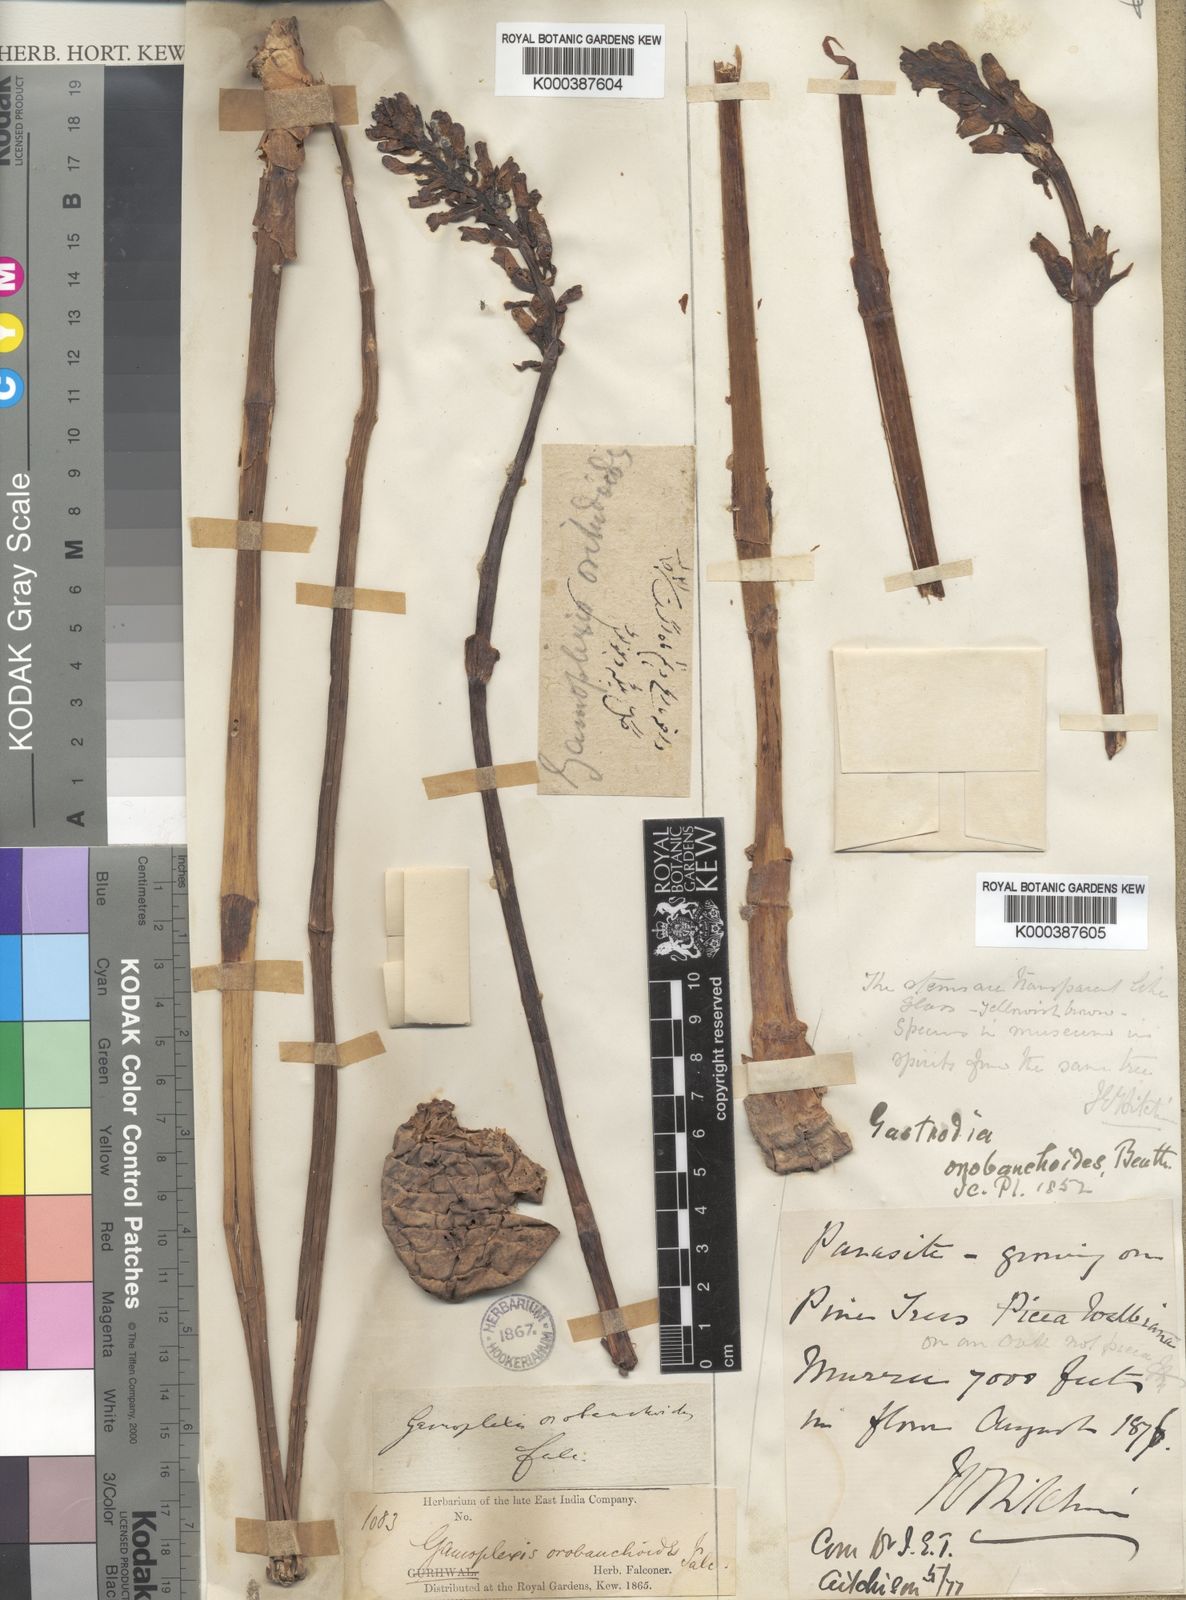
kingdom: Plantae
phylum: Tracheophyta
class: Liliopsida
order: Asparagales
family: Orchidaceae
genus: Gastrodia
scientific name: Gastrodia
